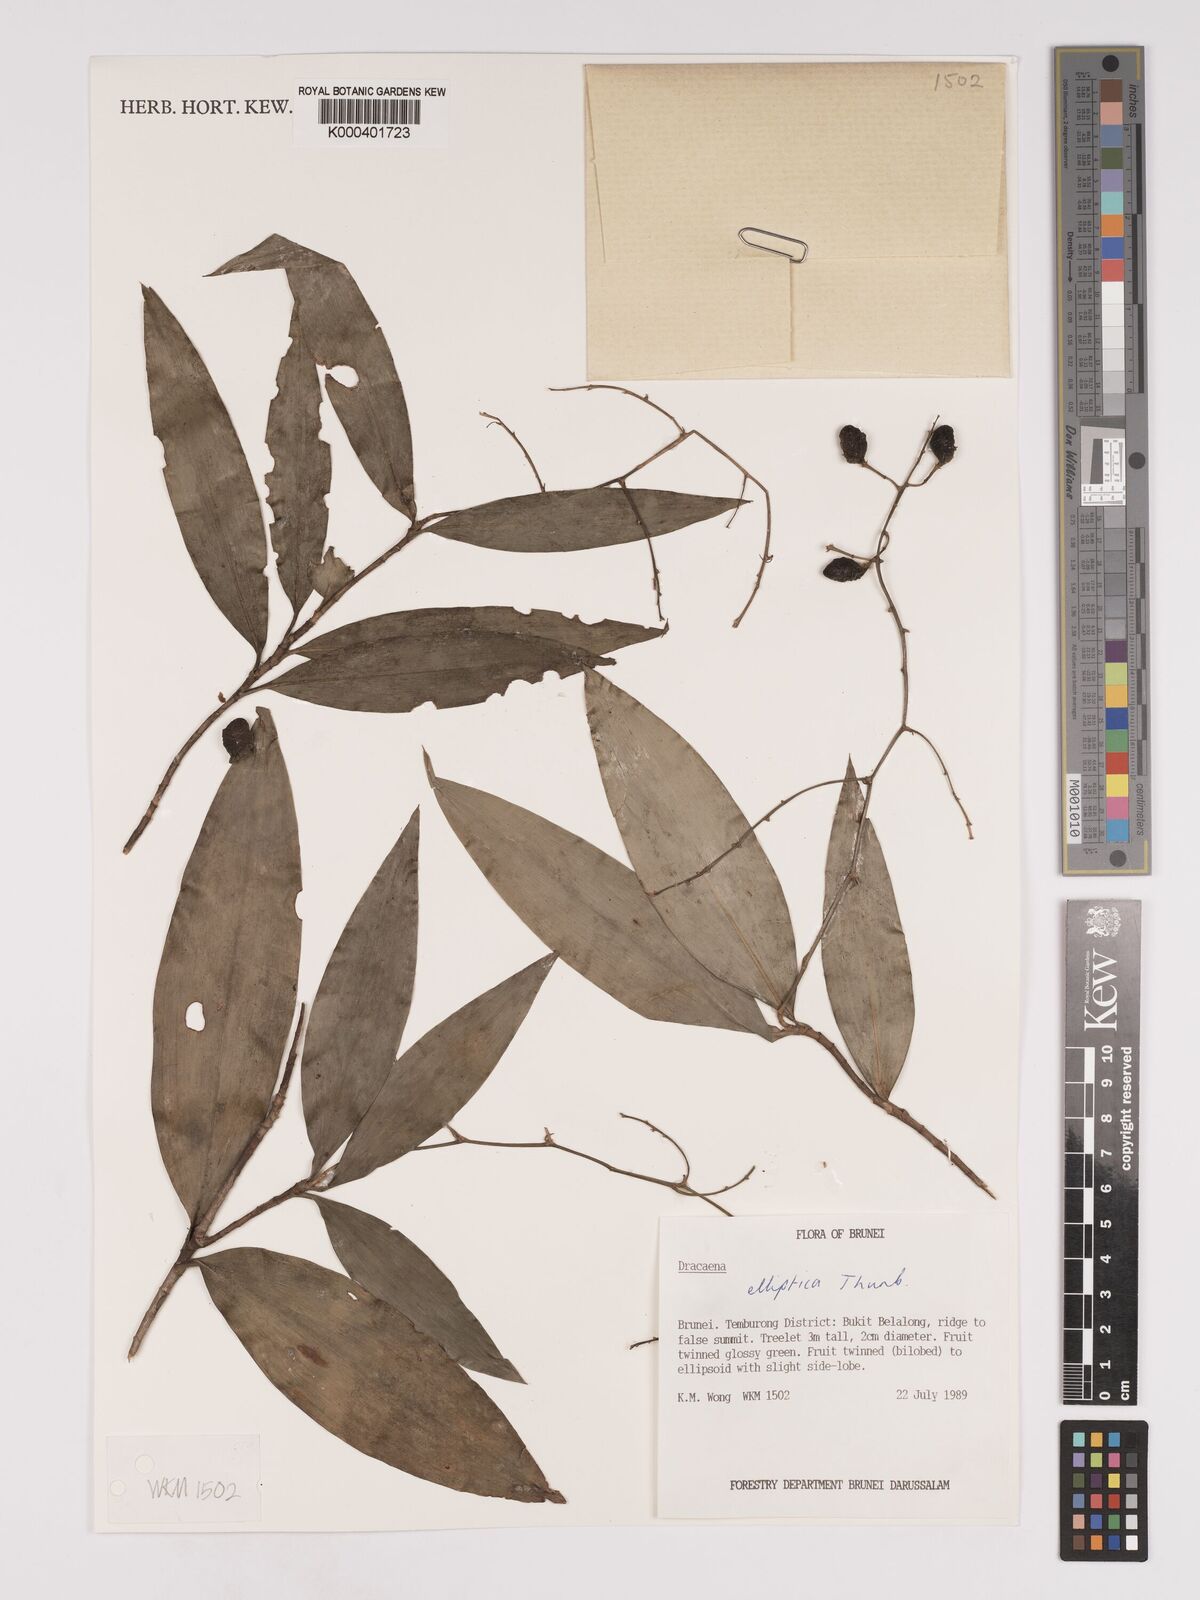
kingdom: Plantae
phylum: Tracheophyta
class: Liliopsida
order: Asparagales
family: Asparagaceae
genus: Dracaena
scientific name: Dracaena elliptica
